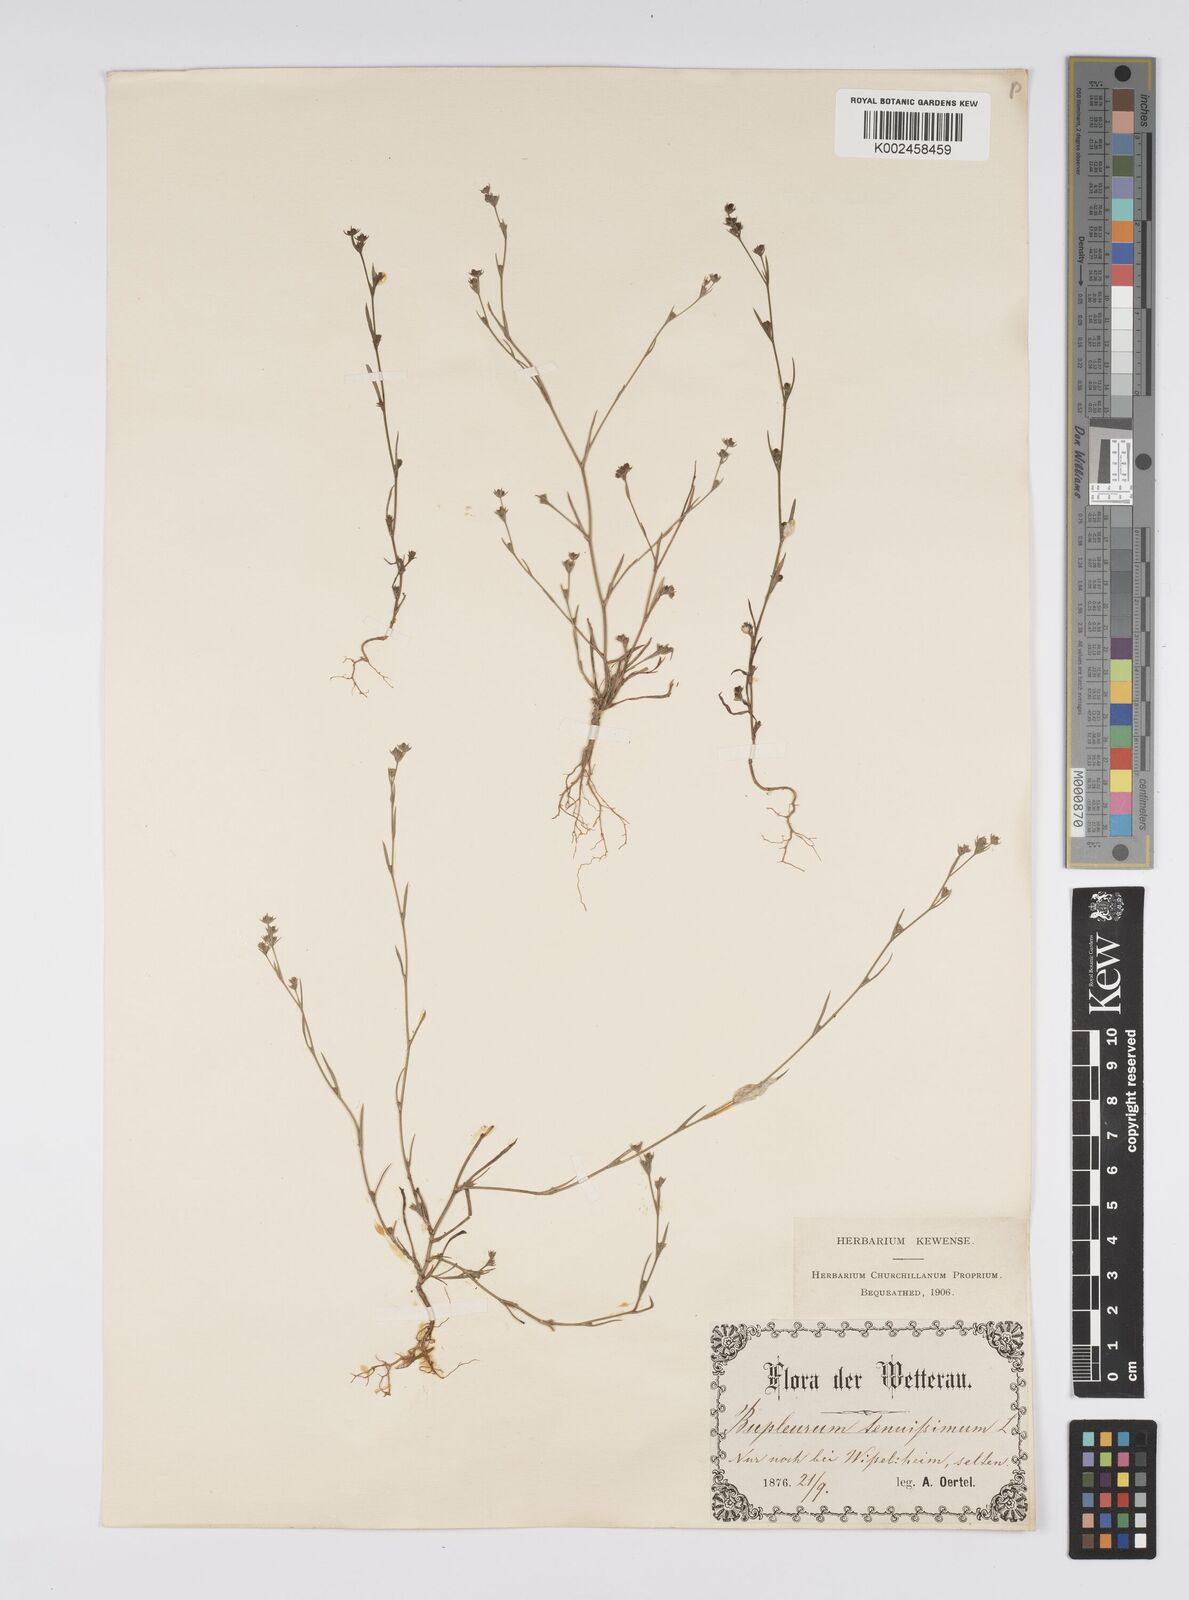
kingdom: Plantae
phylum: Tracheophyta
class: Magnoliopsida
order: Apiales
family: Apiaceae
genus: Bupleurum
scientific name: Bupleurum tenuissimum
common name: Slender hare's-ear
